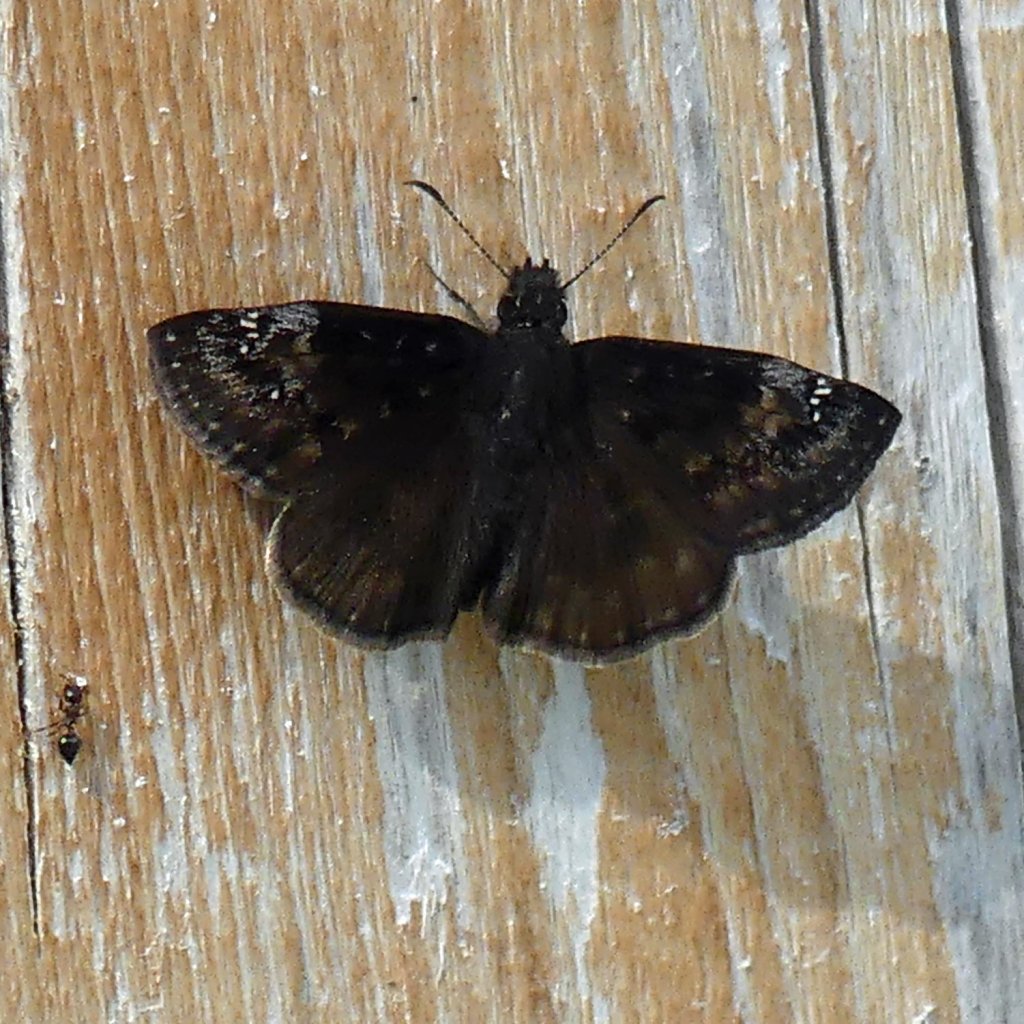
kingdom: Animalia
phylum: Arthropoda
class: Insecta
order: Lepidoptera
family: Hesperiidae
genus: Gesta
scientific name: Gesta
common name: Wild Indigo Duskywing
